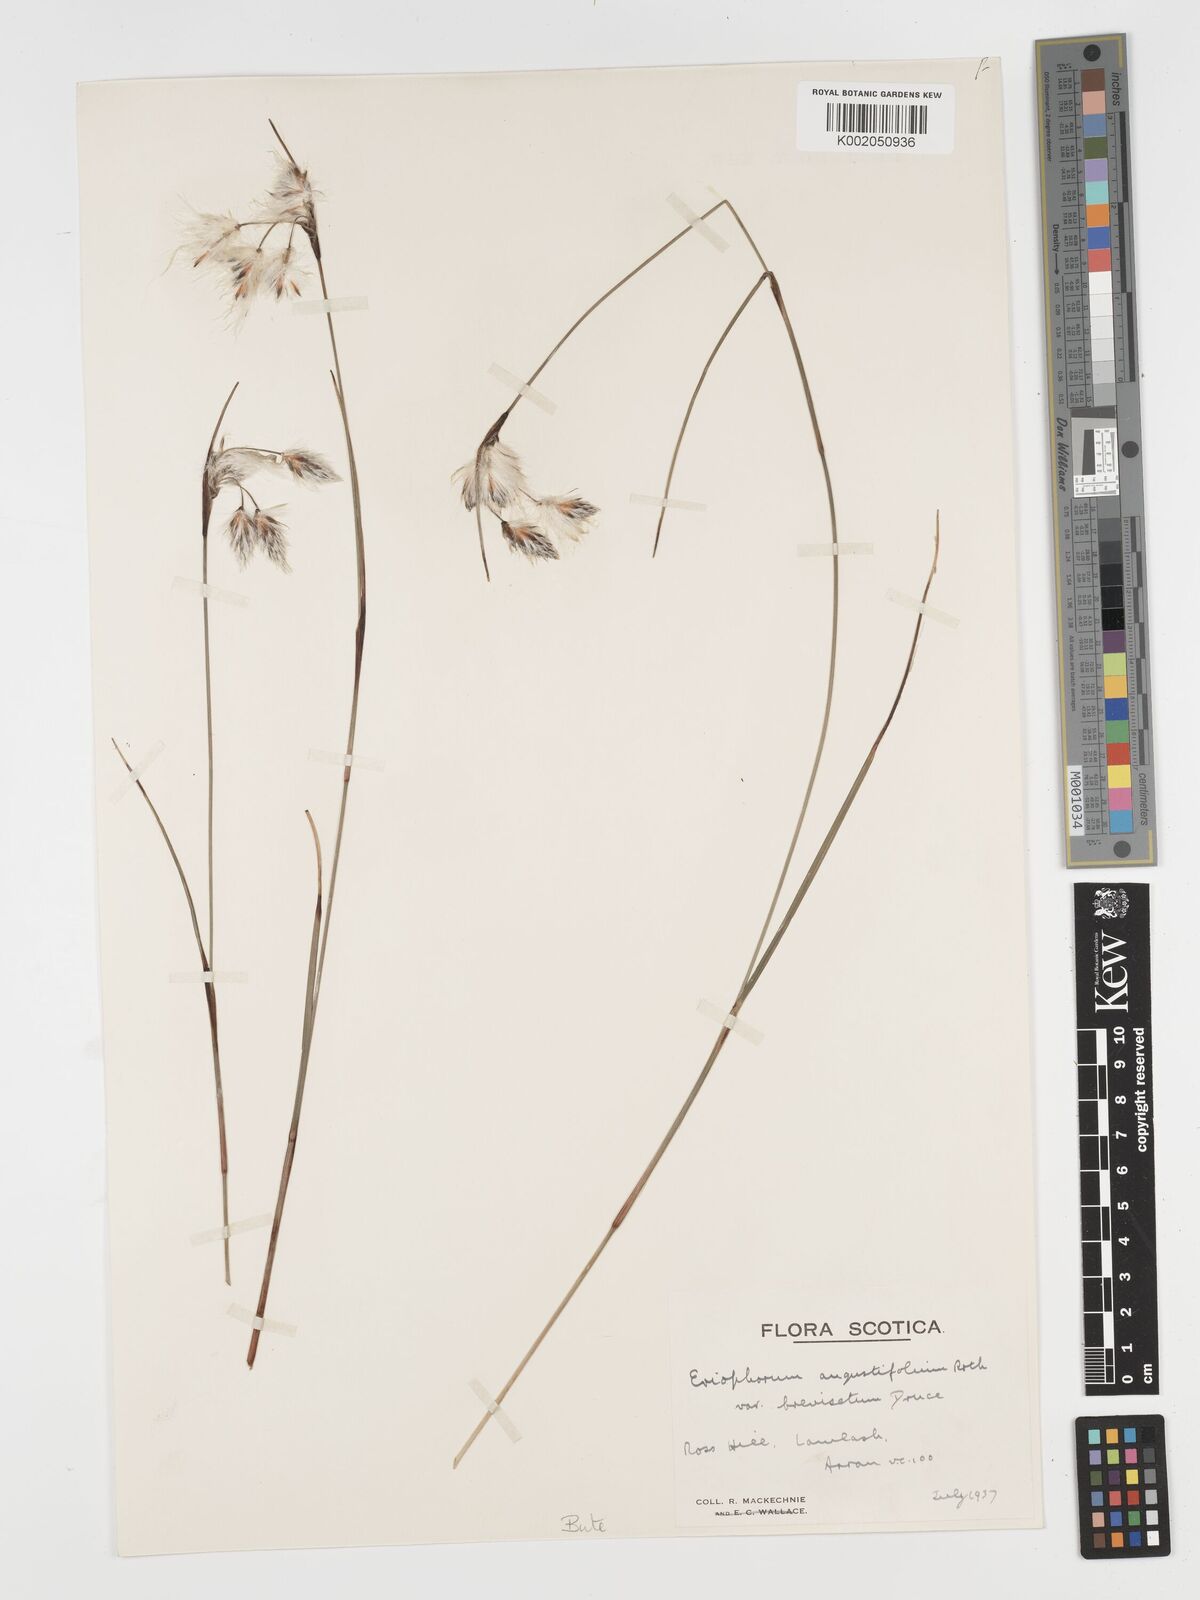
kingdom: Plantae
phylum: Tracheophyta
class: Liliopsida
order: Poales
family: Cyperaceae
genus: Eriophorum
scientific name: Eriophorum angustifolium
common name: Common cottongrass
